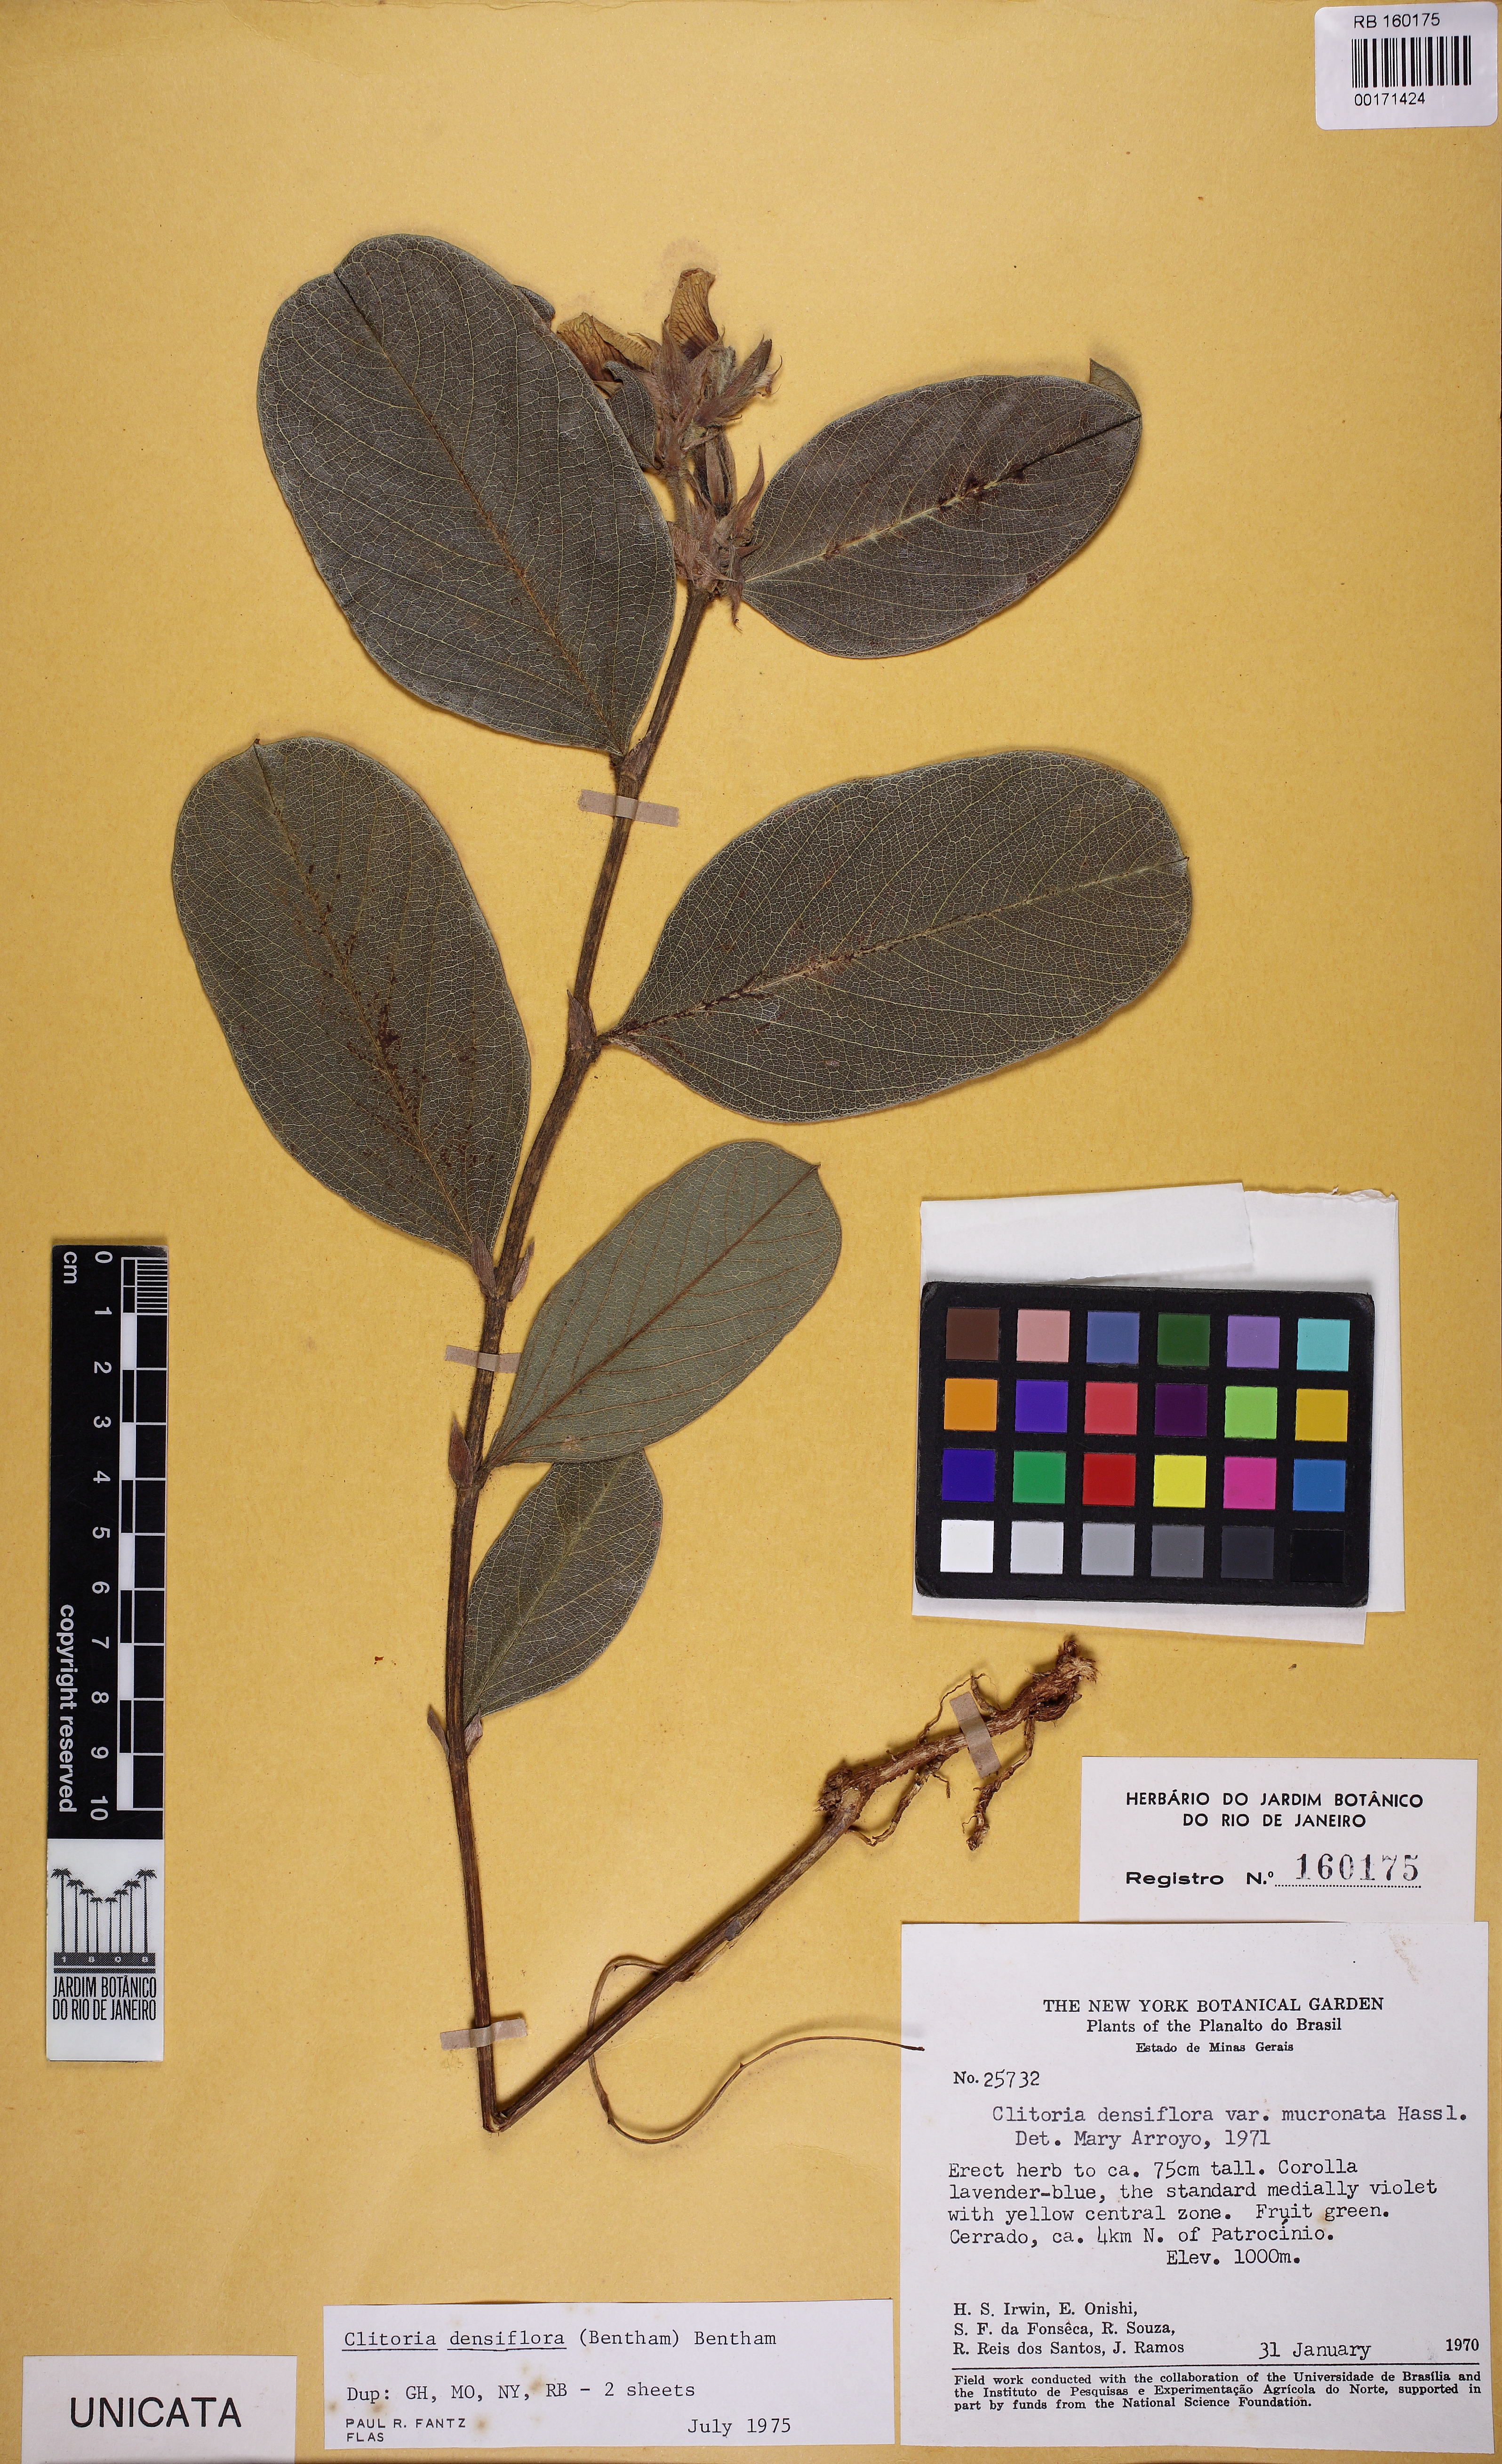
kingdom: Plantae
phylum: Tracheophyta
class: Magnoliopsida
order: Fabales
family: Fabaceae
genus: Clitoria
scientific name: Clitoria densiflora
